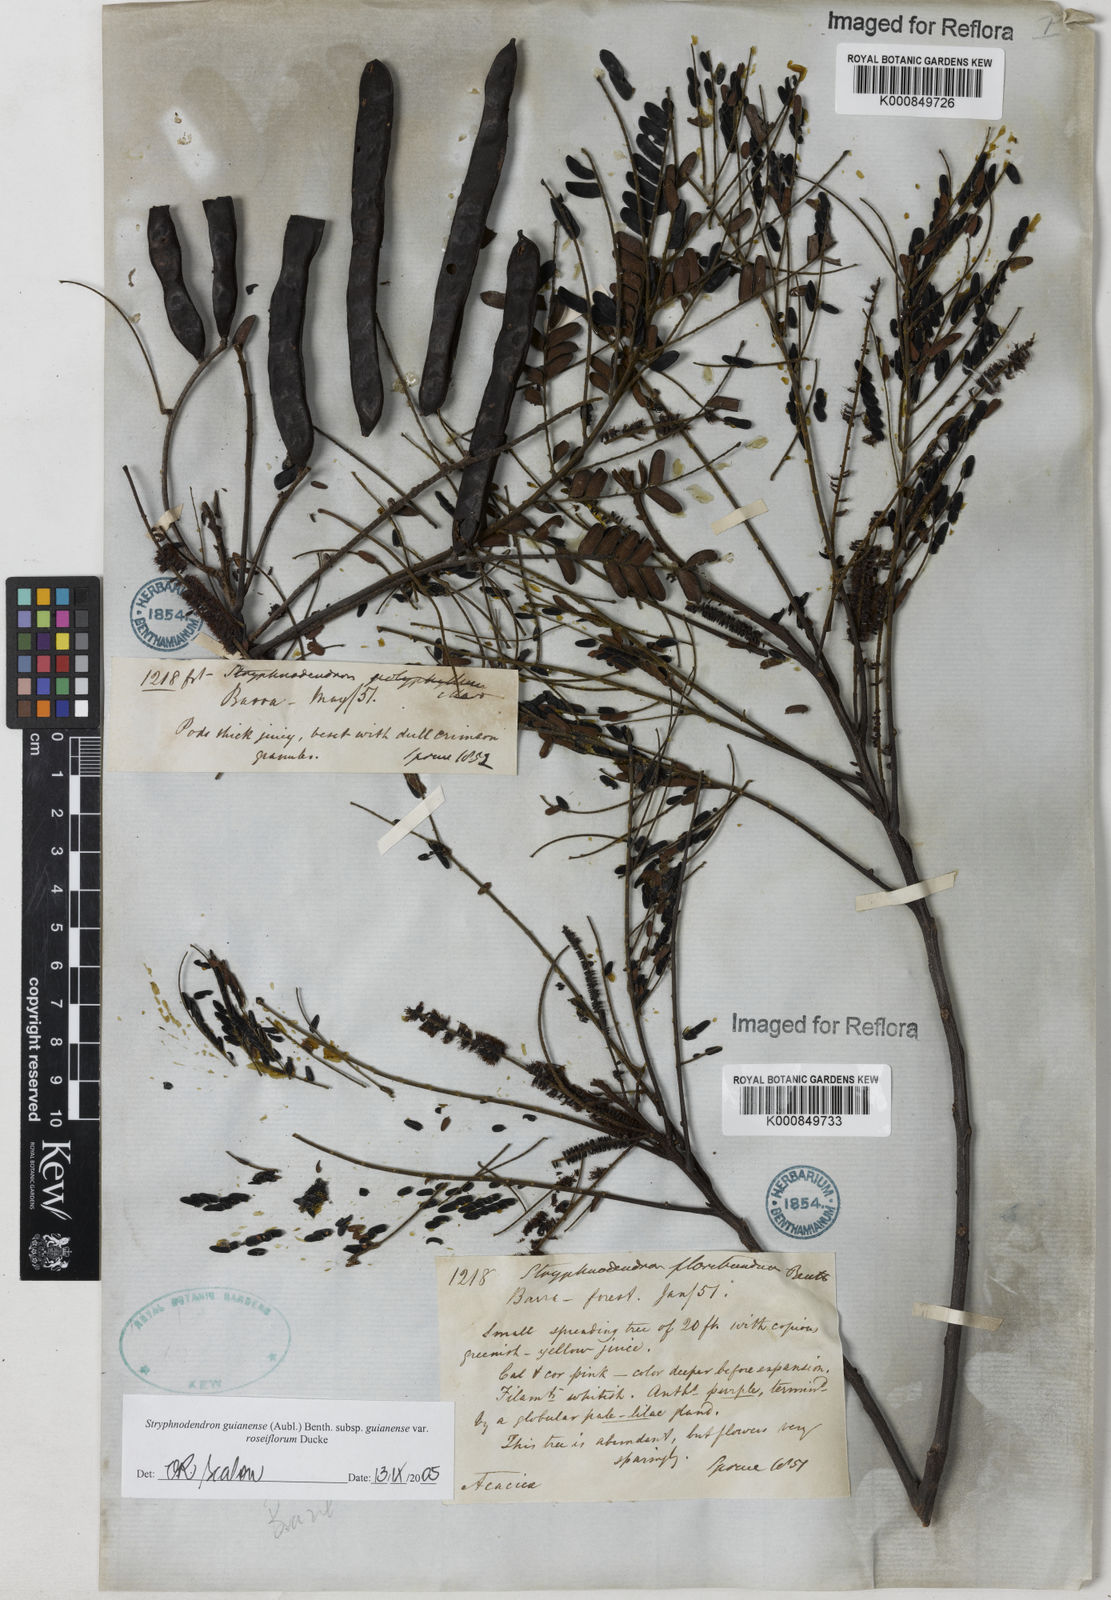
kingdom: Plantae
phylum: Tracheophyta
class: Magnoliopsida
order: Fabales
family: Fabaceae
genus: Stryphnodendron
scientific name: Stryphnodendron guianense
